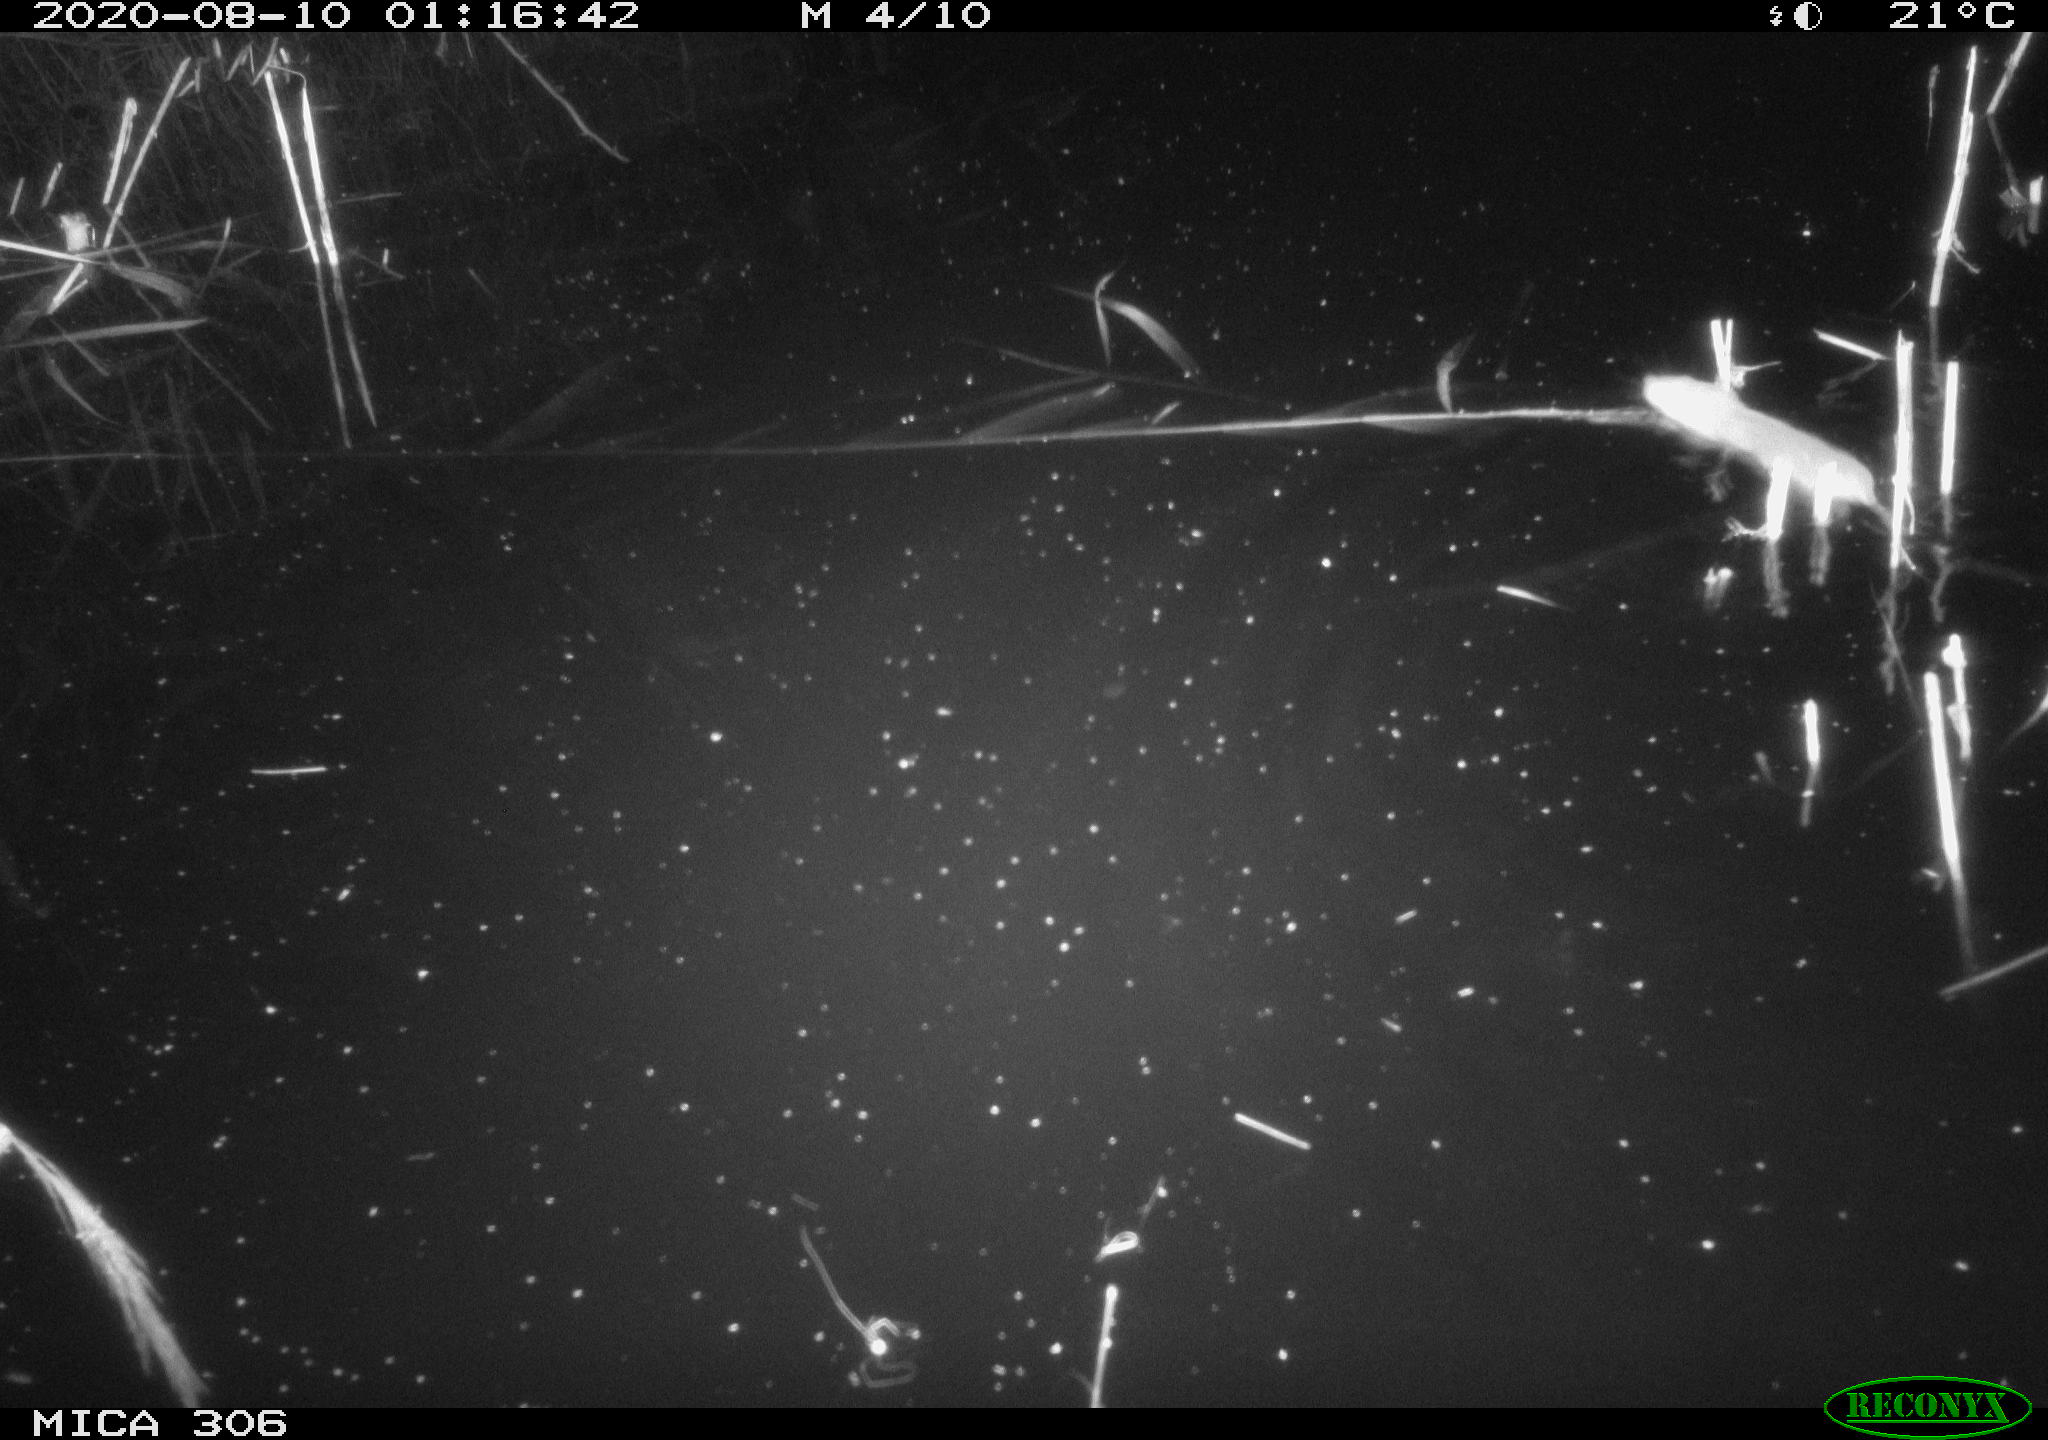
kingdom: Animalia
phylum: Chordata
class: Mammalia
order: Rodentia
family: Muridae
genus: Rattus
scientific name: Rattus norvegicus
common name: Brown rat
